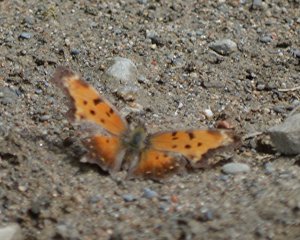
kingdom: Animalia
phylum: Arthropoda
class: Insecta
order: Lepidoptera
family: Nymphalidae
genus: Polygonia
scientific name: Polygonia progne
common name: Gray Comma
